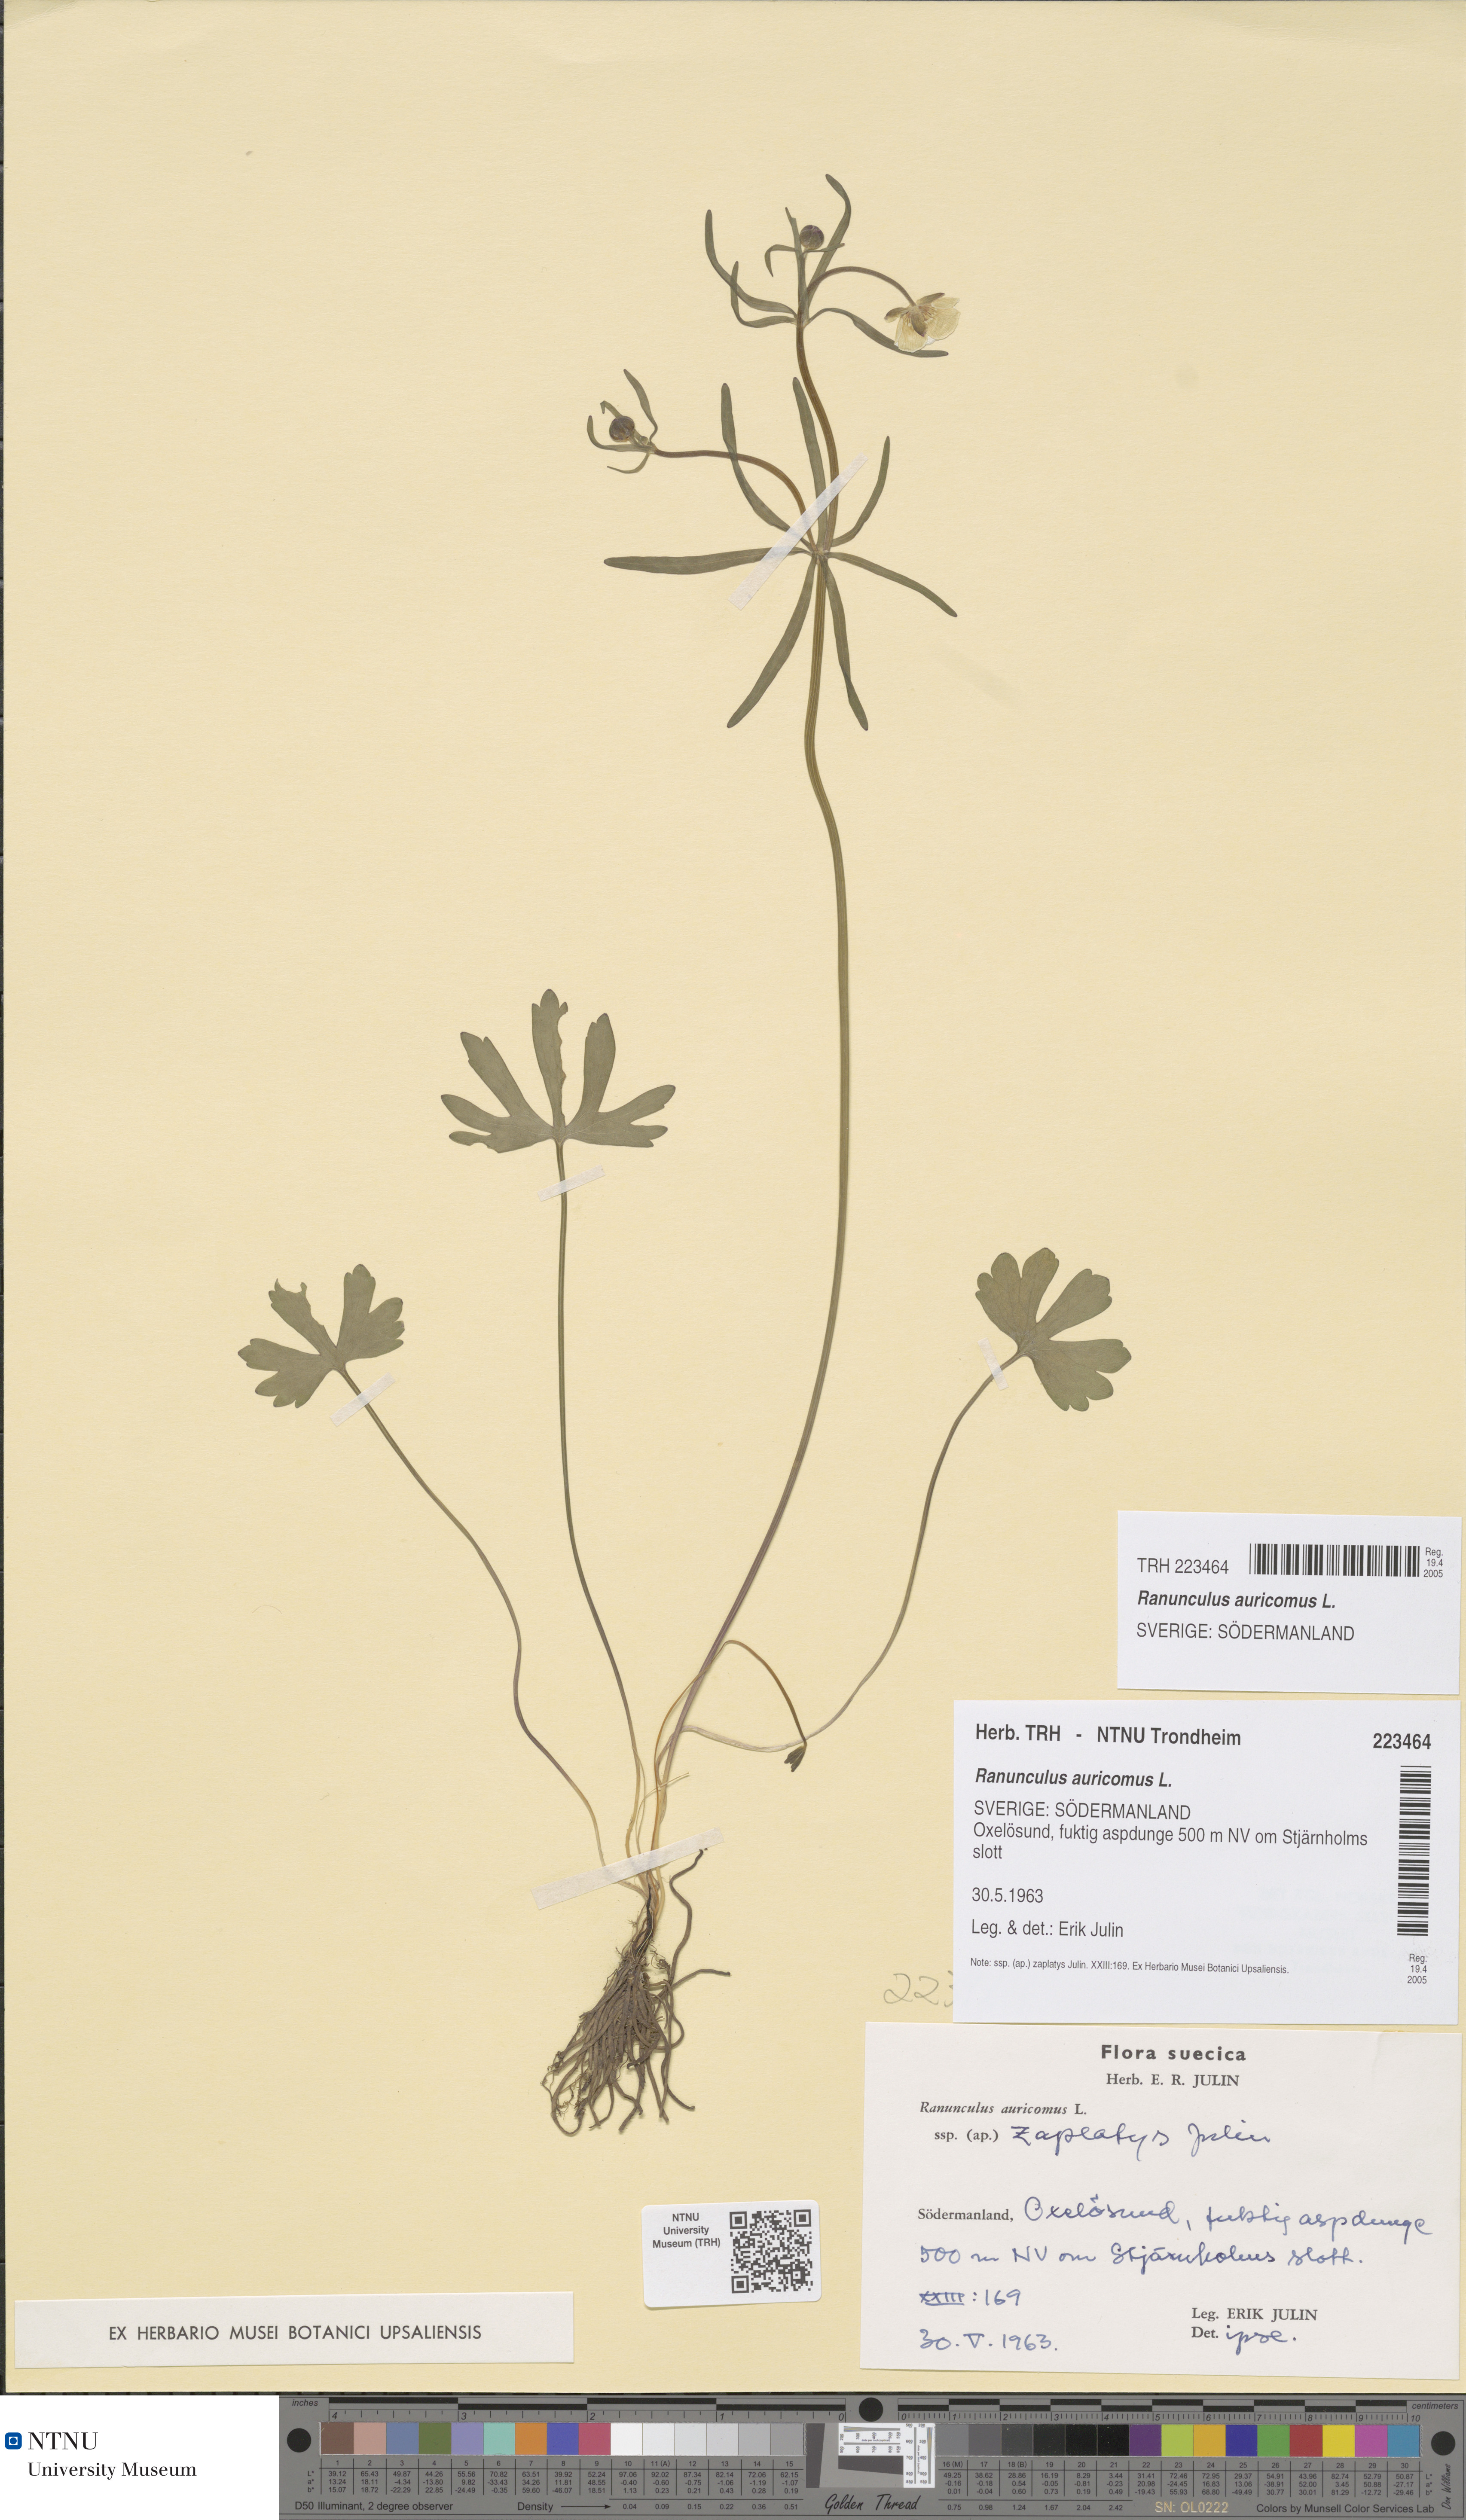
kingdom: Plantae
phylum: Tracheophyta
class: Magnoliopsida
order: Ranunculales
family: Ranunculaceae
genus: Ranunculus
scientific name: Ranunculus auricomus
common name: Goldilocks buttercup
